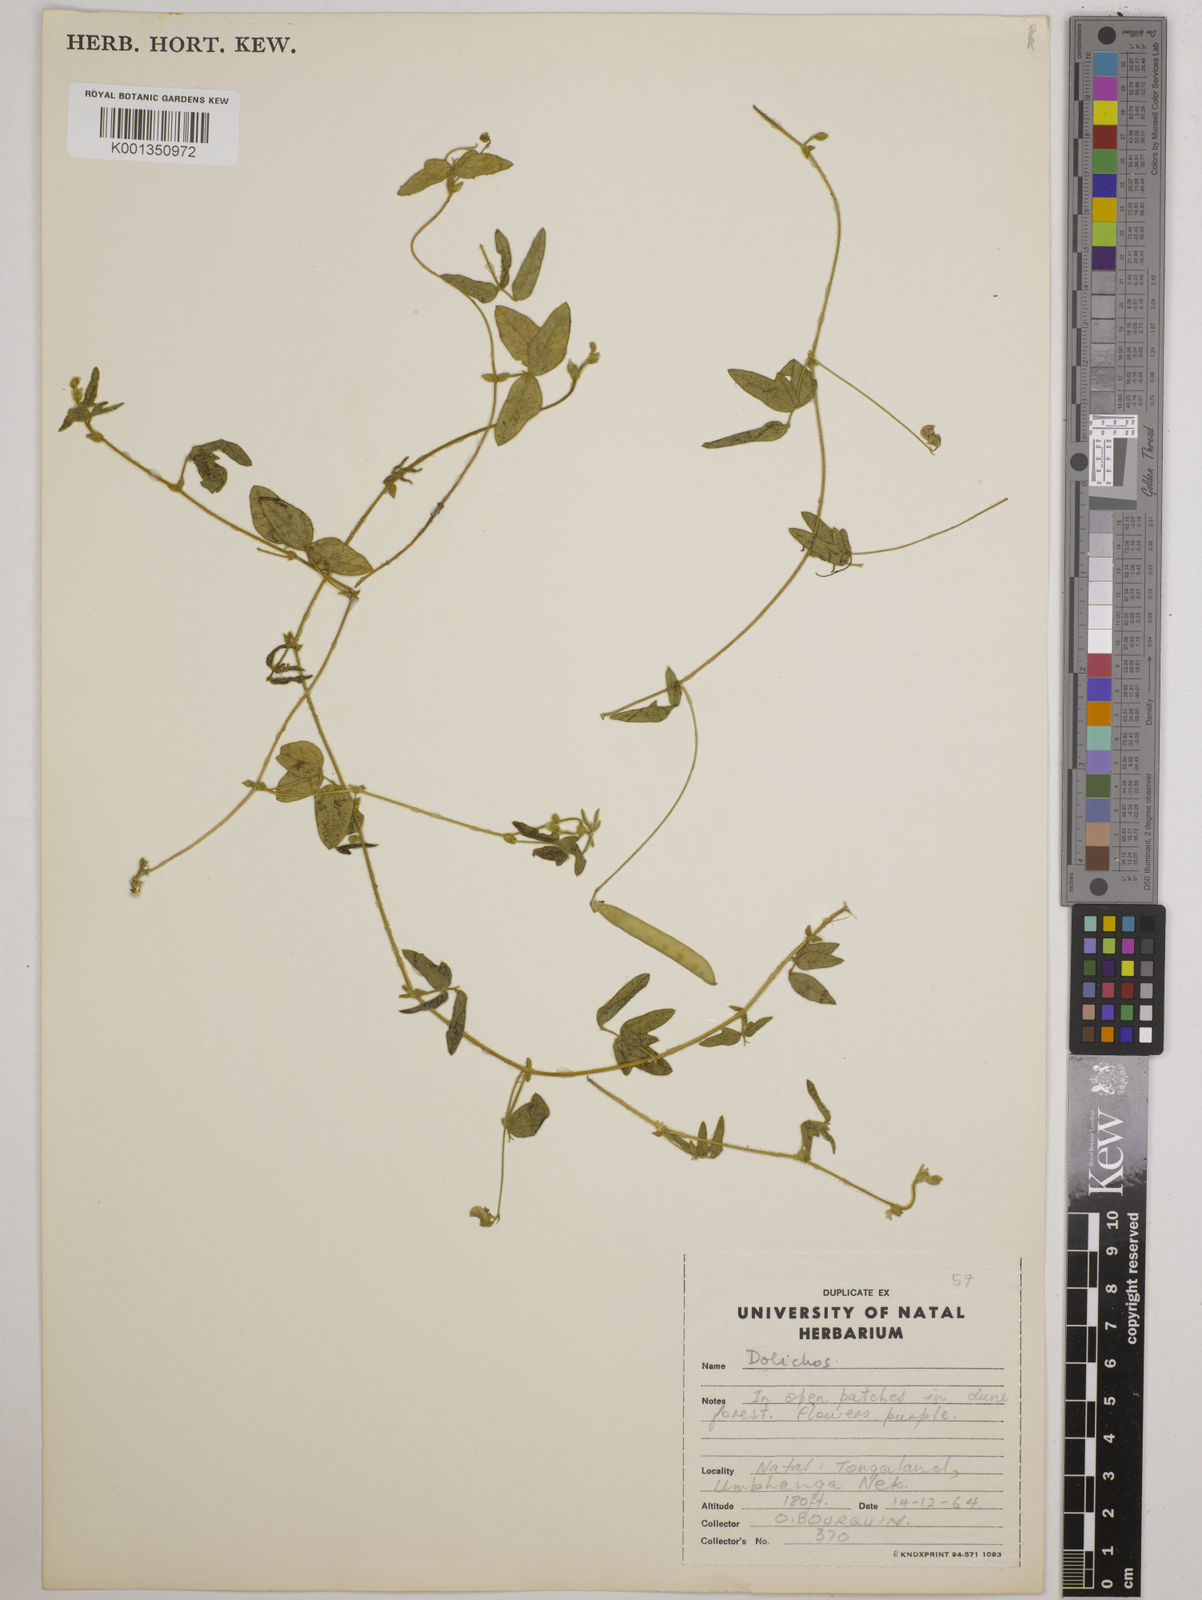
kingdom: Plantae
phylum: Tracheophyta
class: Magnoliopsida
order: Fabales
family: Fabaceae
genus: Dolichos
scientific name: Dolichos
